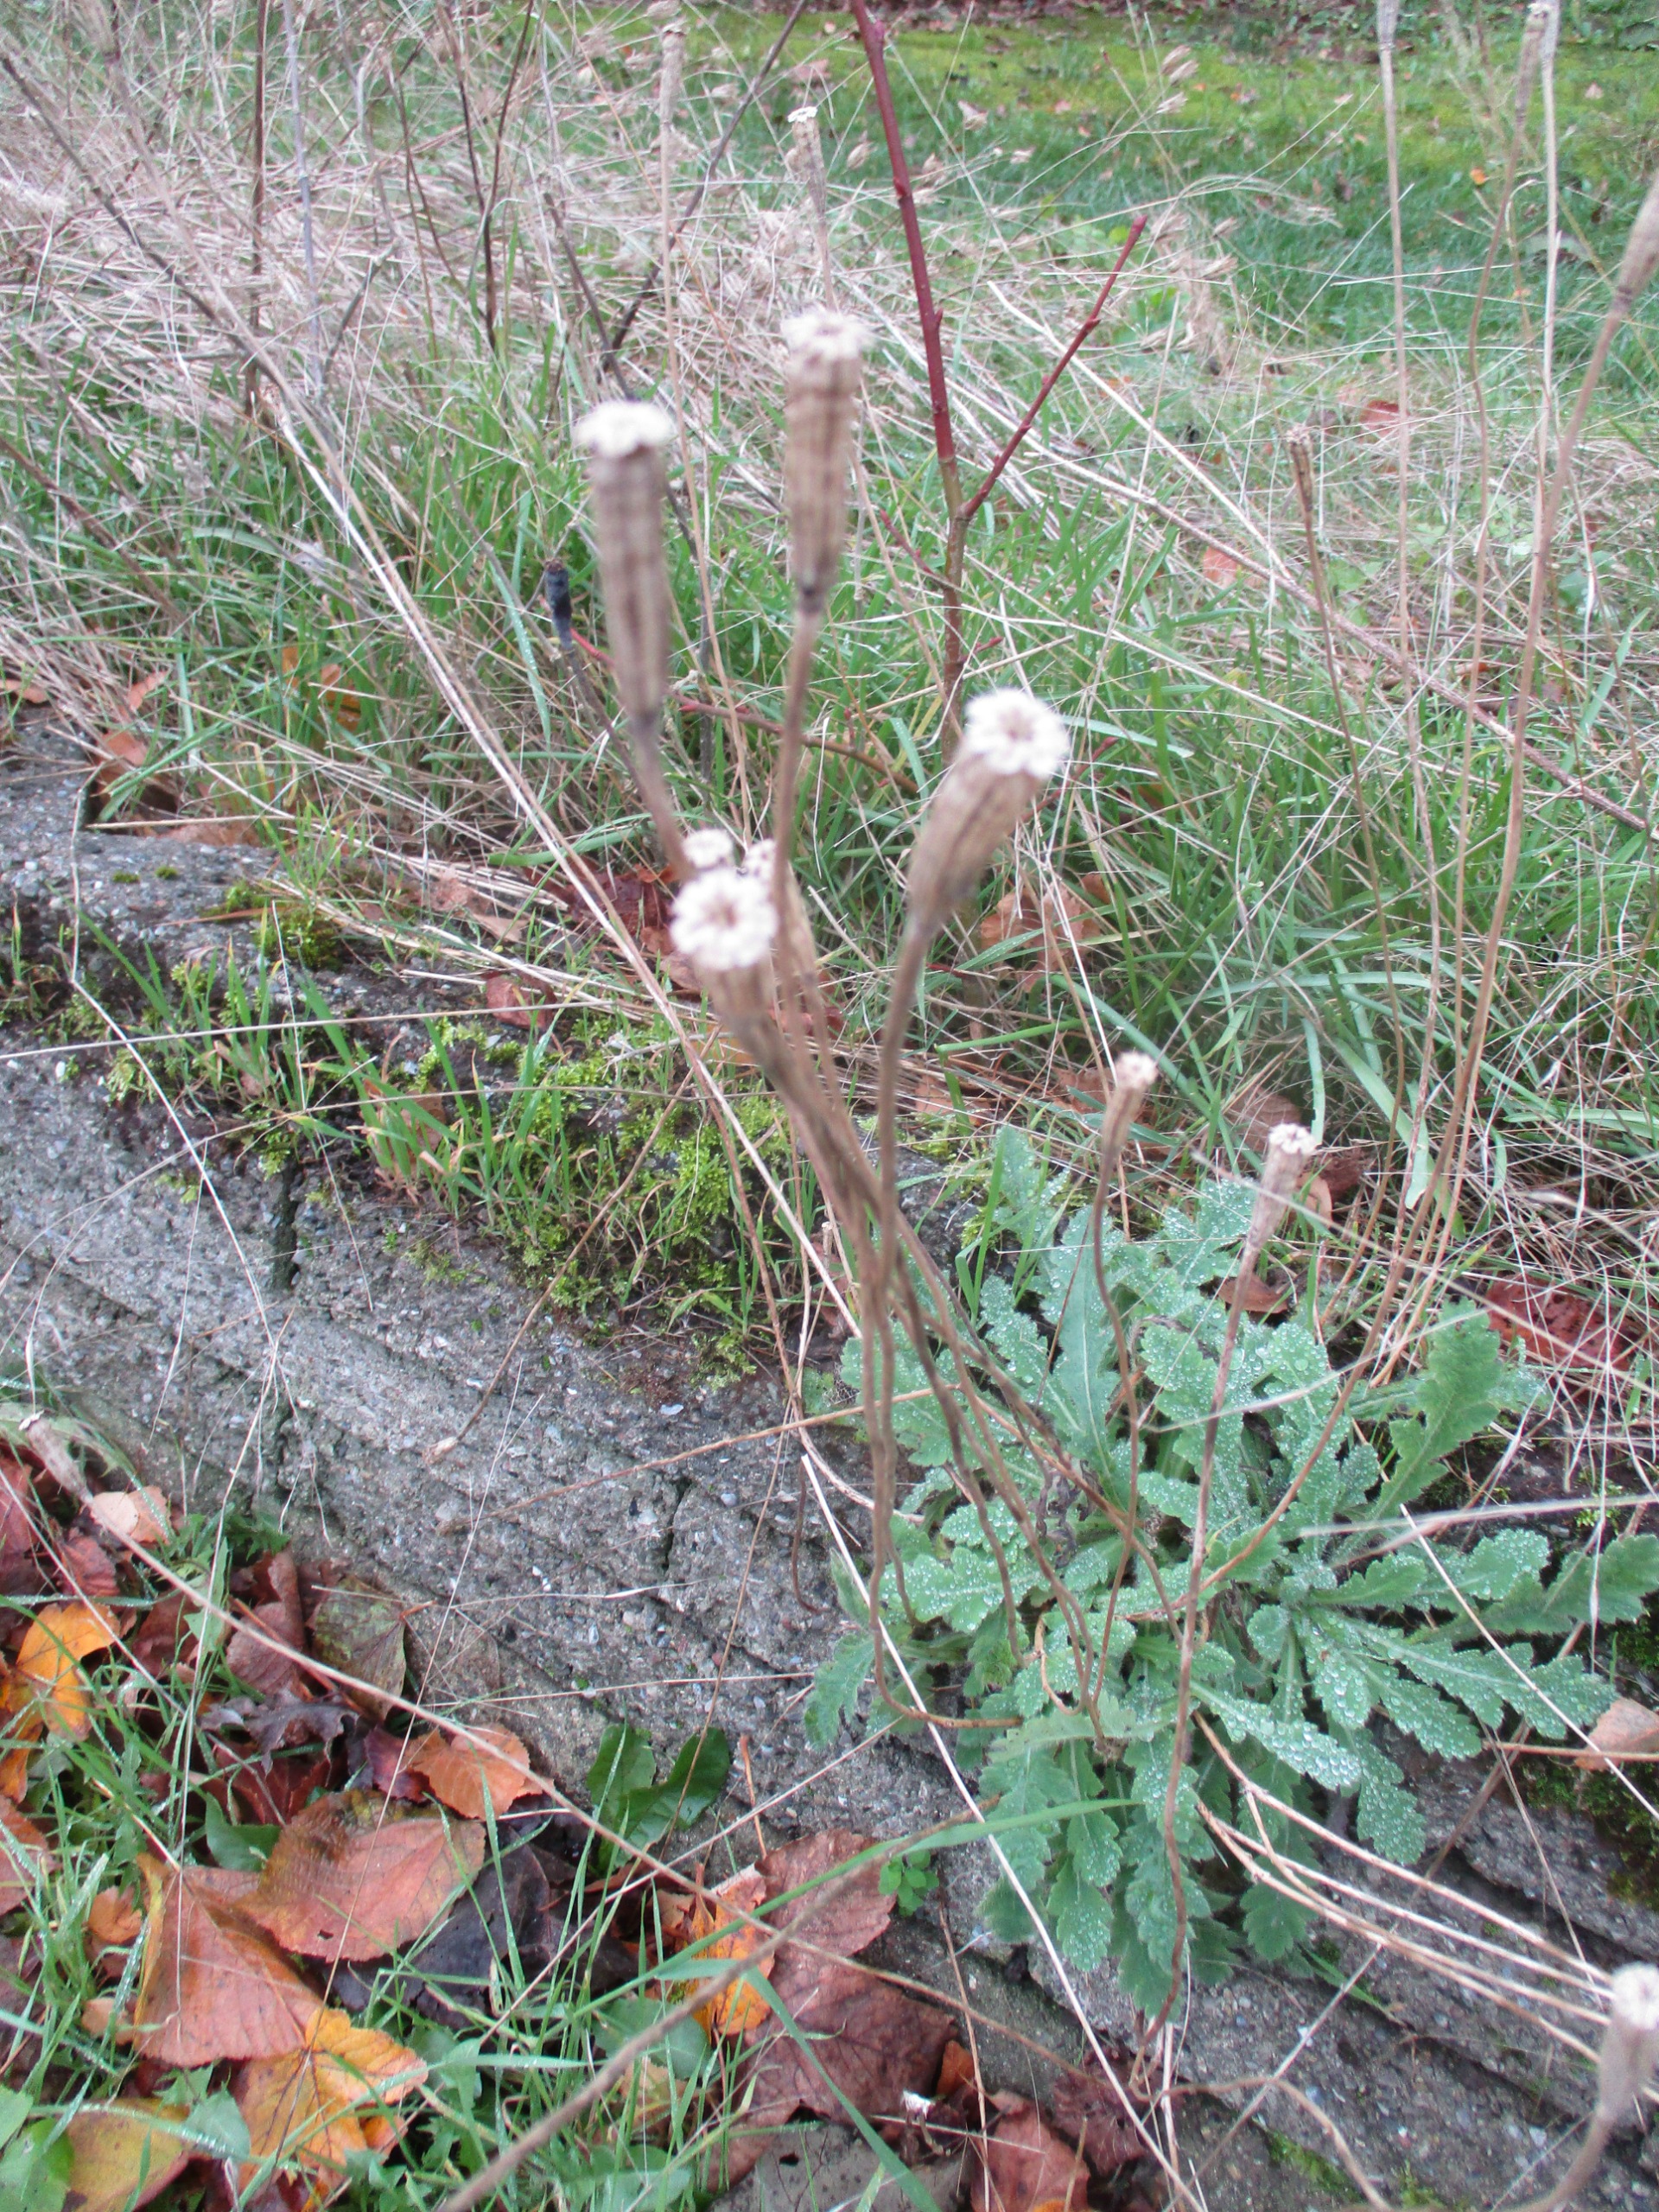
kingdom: Plantae
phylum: Tracheophyta
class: Magnoliopsida
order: Ranunculales
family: Papaveraceae
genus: Papaver
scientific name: Papaver dubium
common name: Gærde-valmue
